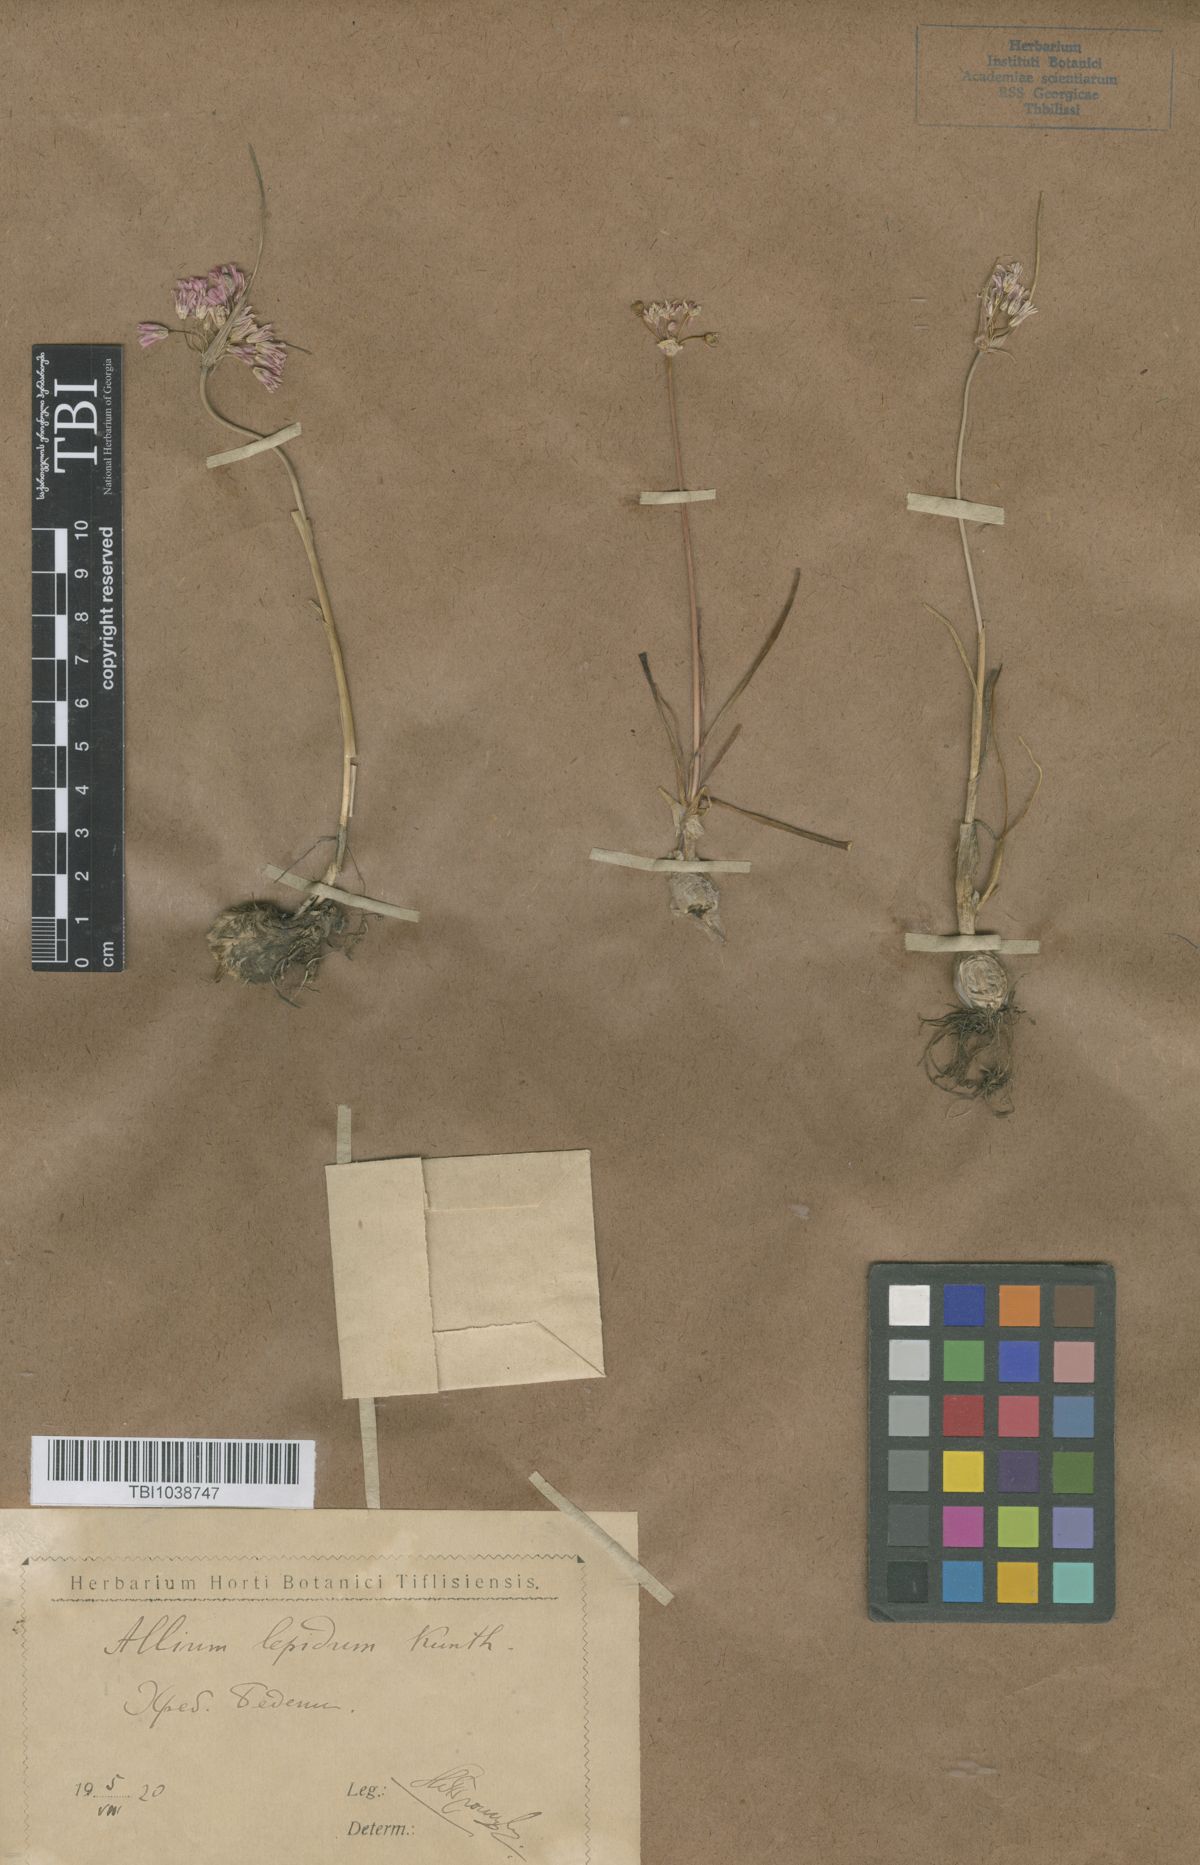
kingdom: Plantae
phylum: Tracheophyta
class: Liliopsida
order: Asparagales
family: Amaryllidaceae
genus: Allium
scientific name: Allium kunthianum
